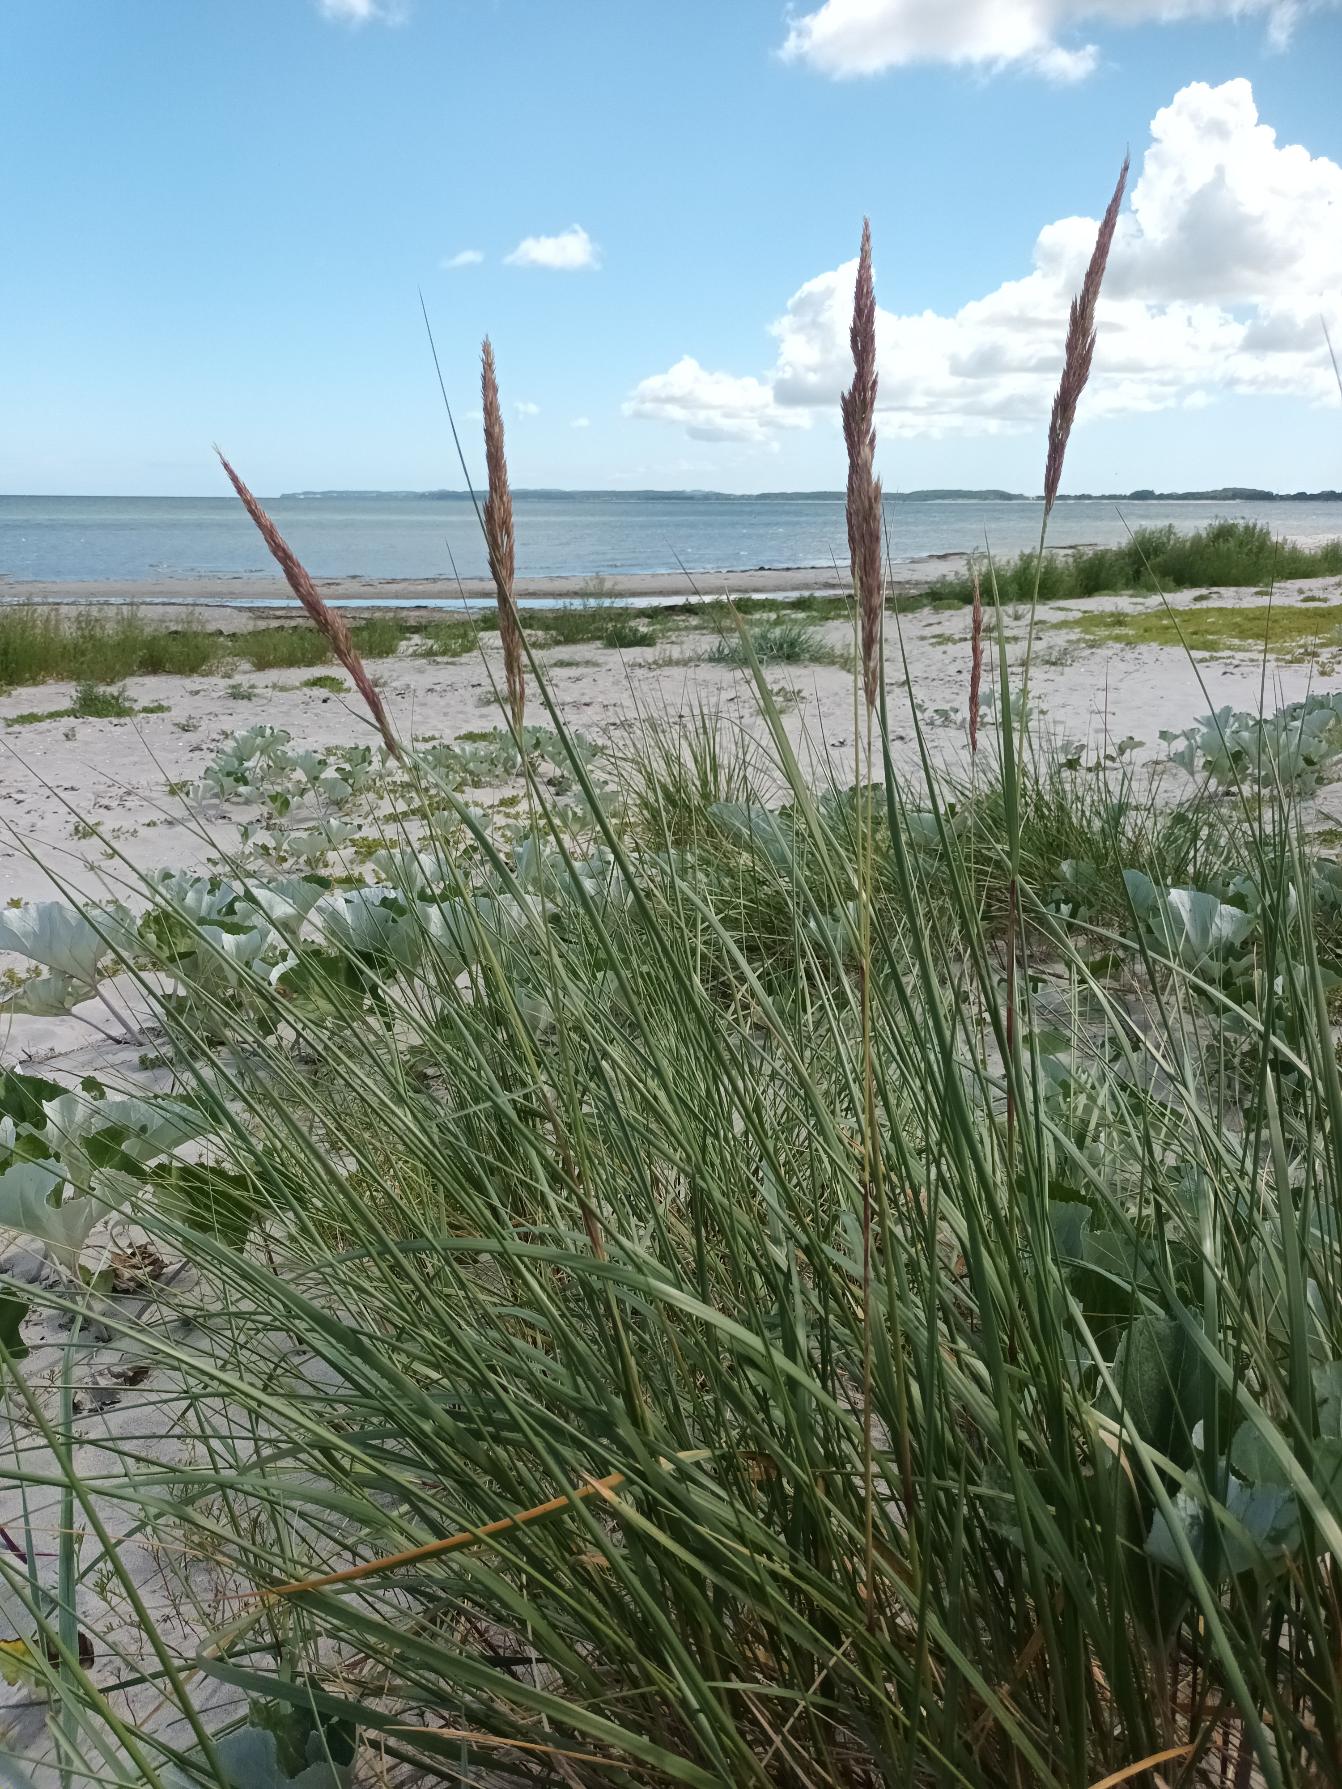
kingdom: Plantae
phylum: Tracheophyta
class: Liliopsida
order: Poales
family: Poaceae
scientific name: Poaceae
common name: Østersøhjælme
